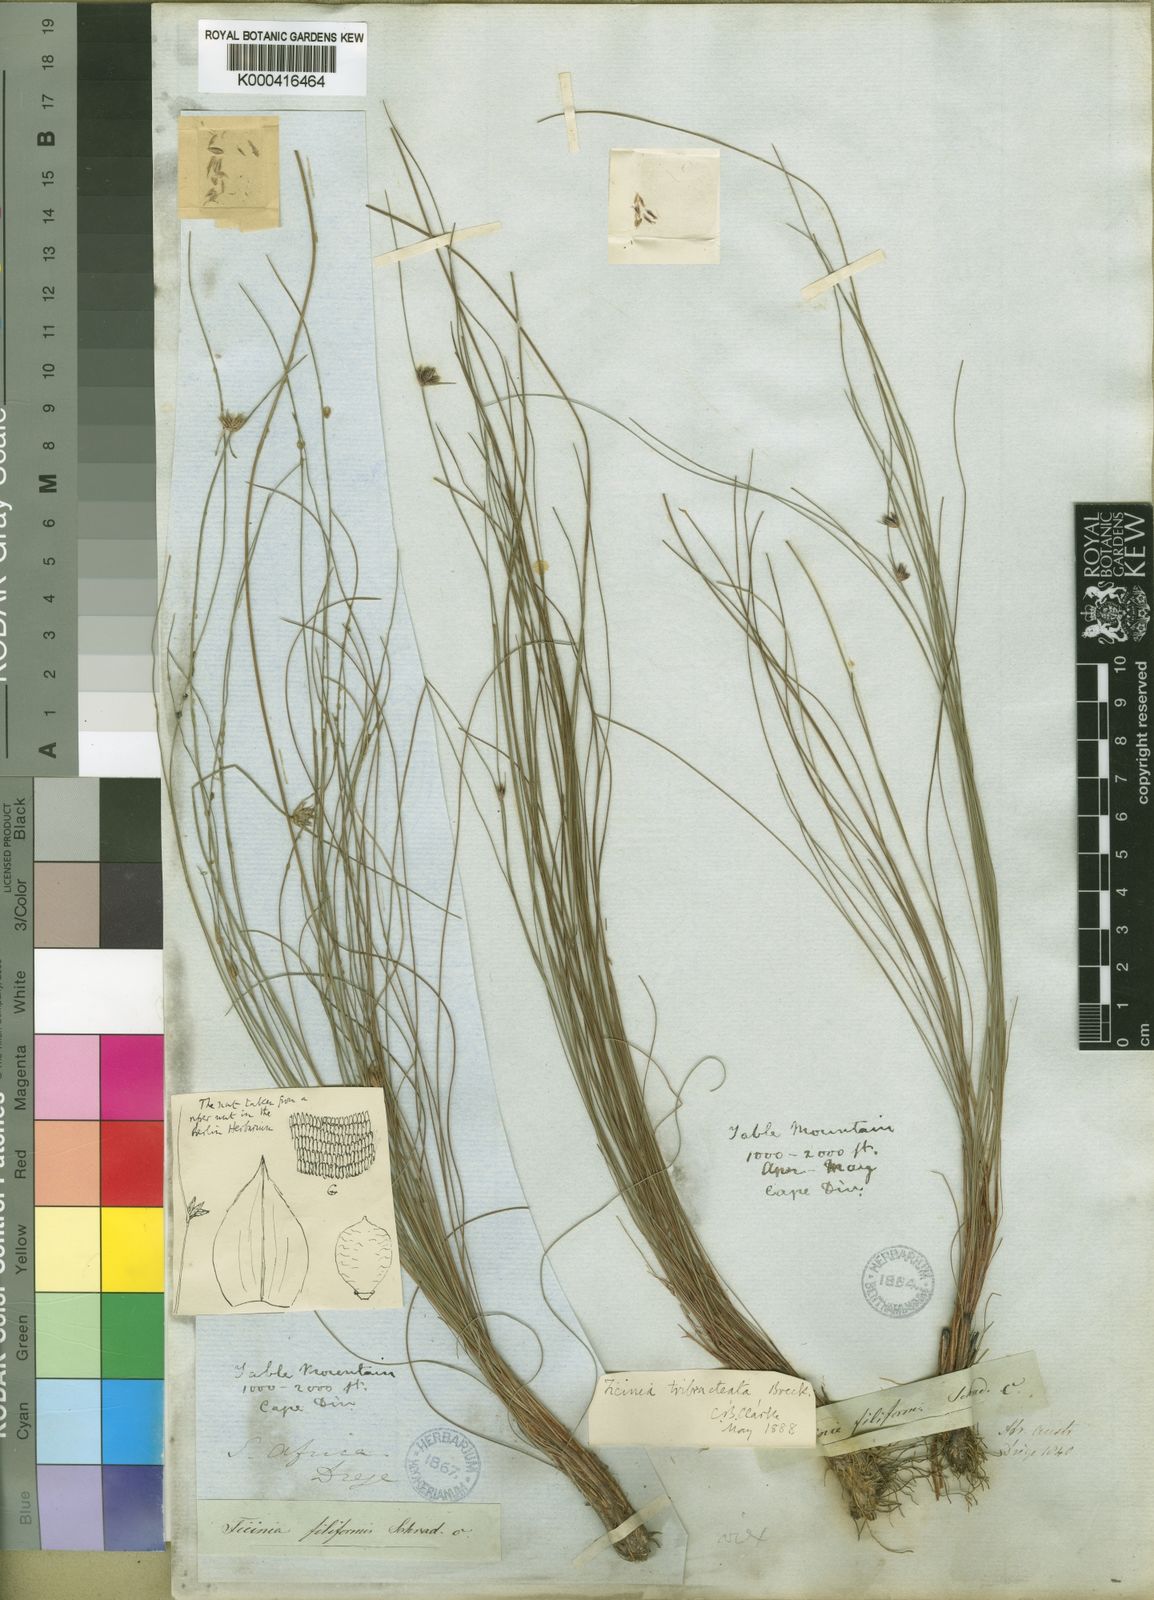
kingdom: Plantae
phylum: Tracheophyta
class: Liliopsida
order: Poales
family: Cyperaceae
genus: Ficinia
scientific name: Ficinia tristachya
